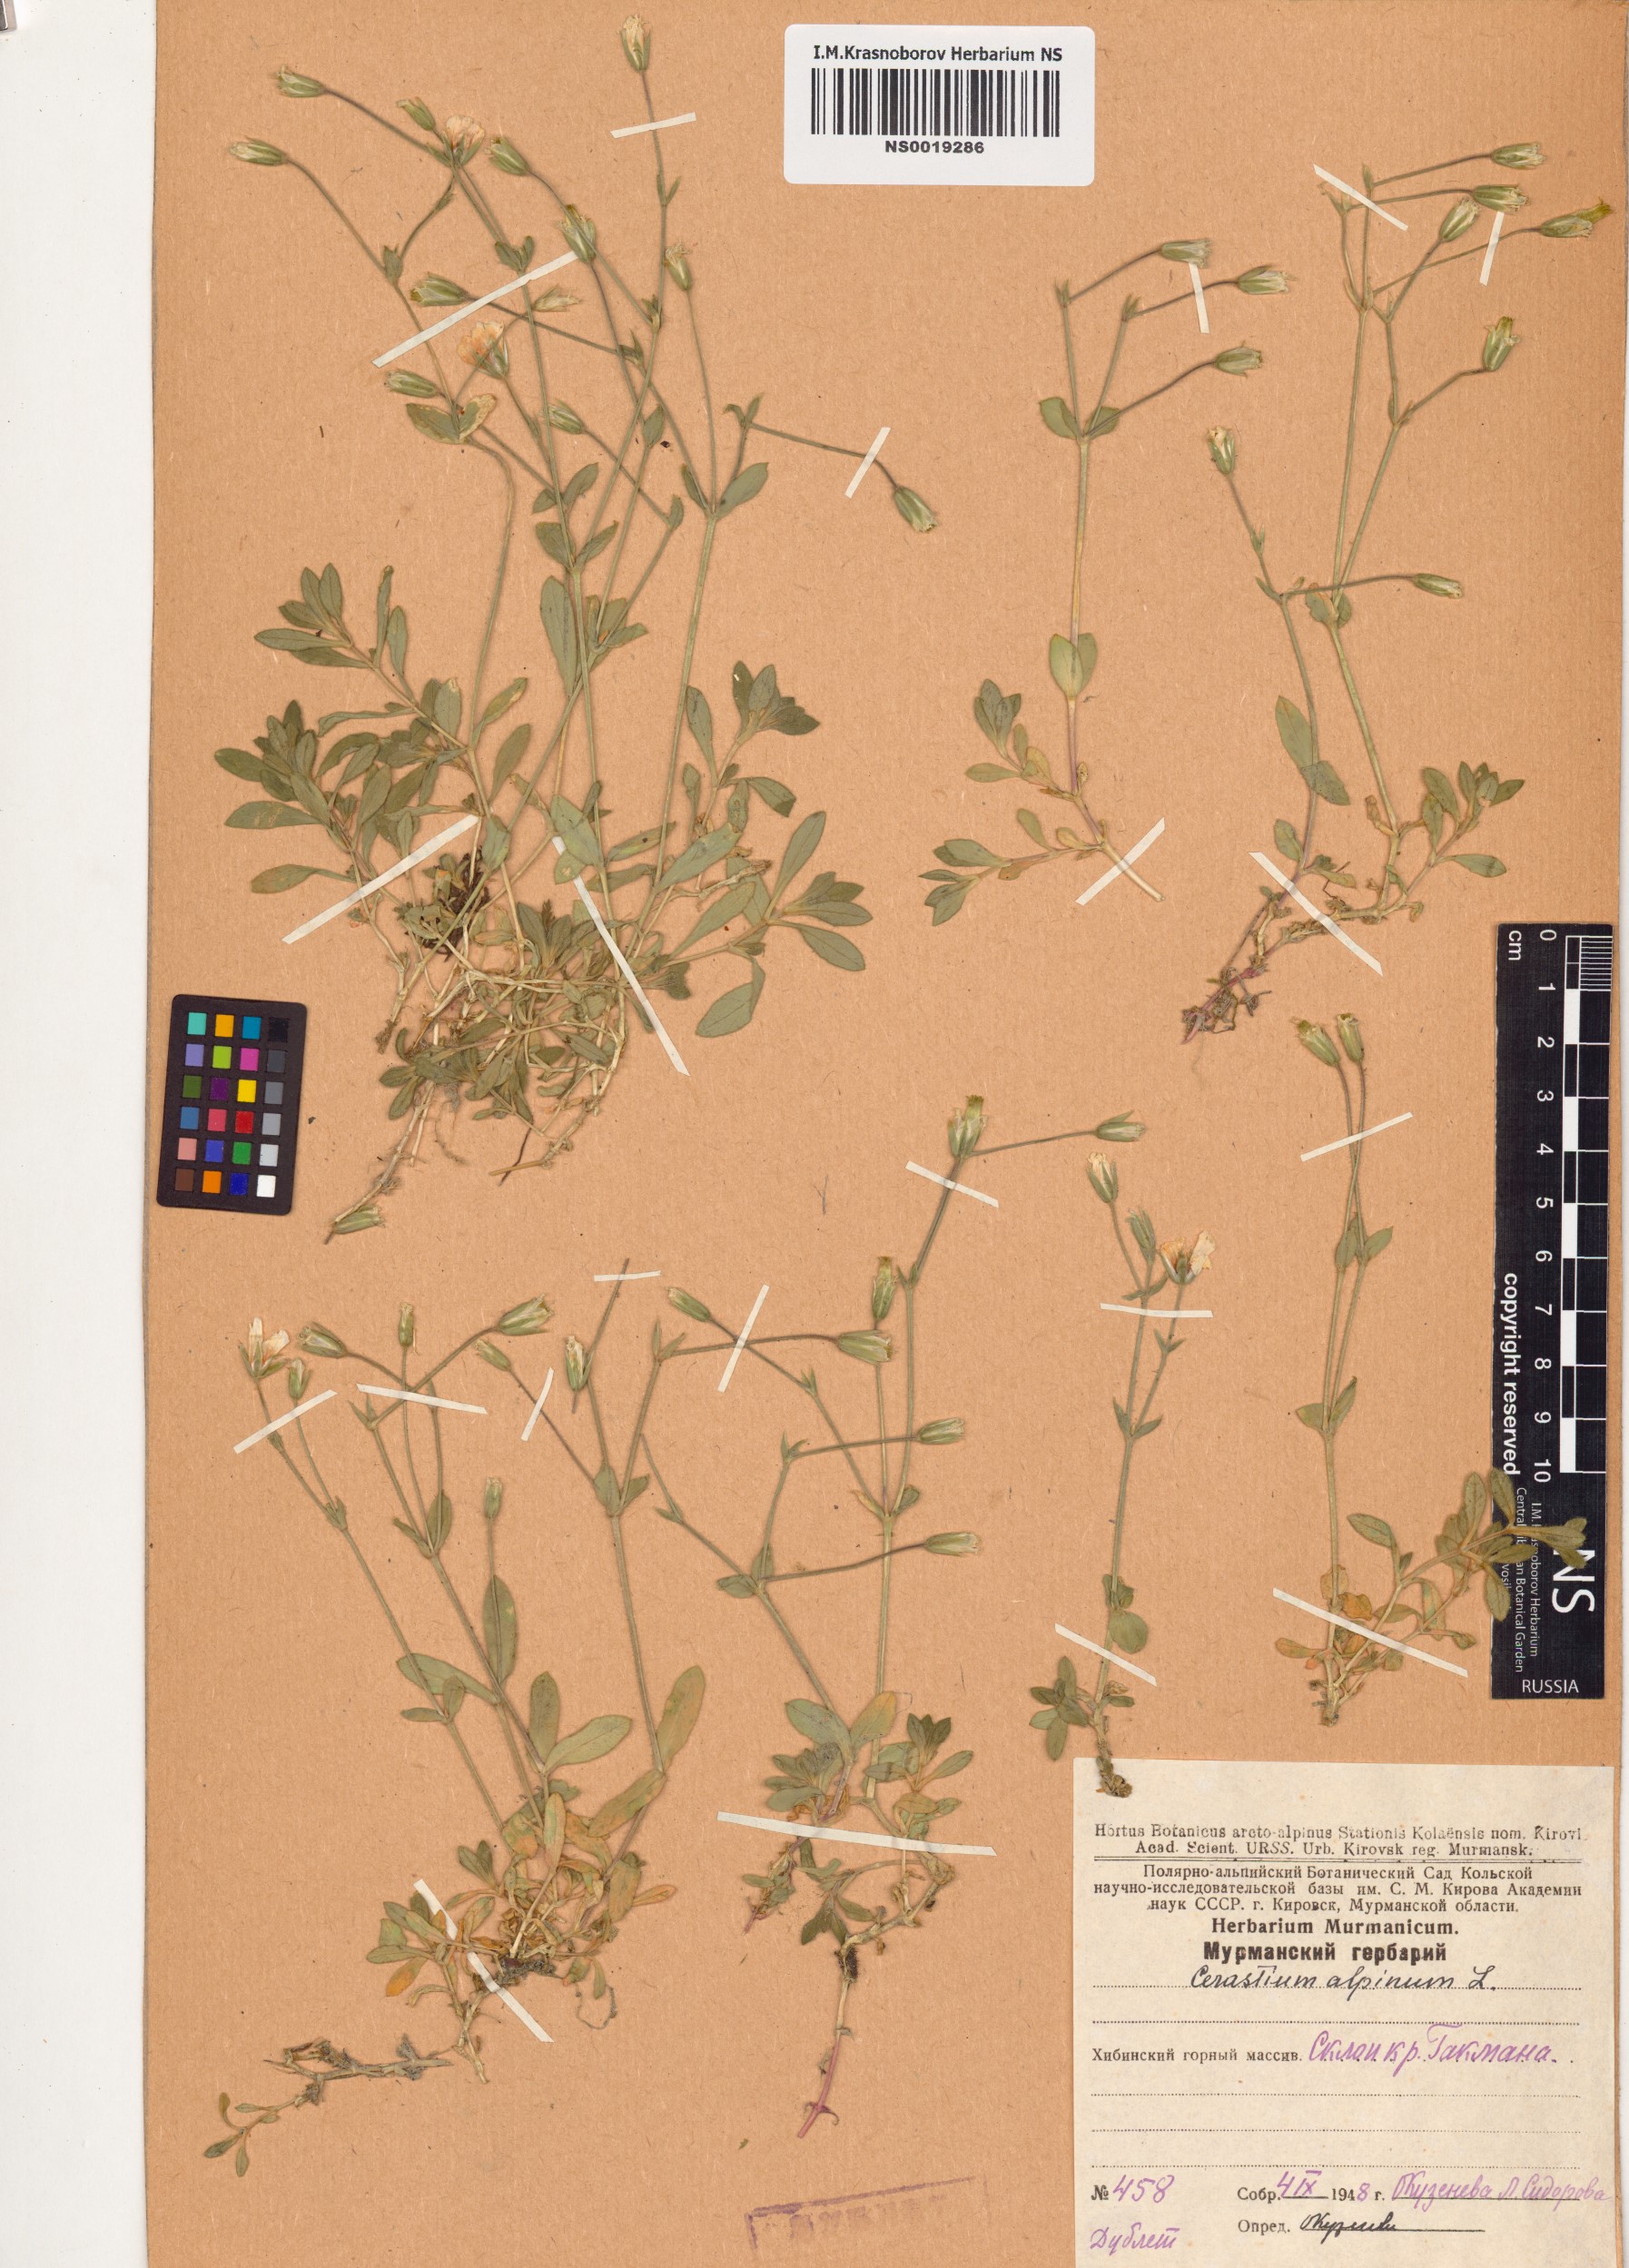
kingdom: Plantae
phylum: Tracheophyta
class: Magnoliopsida
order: Caryophyllales
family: Caryophyllaceae
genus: Cerastium
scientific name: Cerastium alpinum
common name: Alpine mouse-ear
